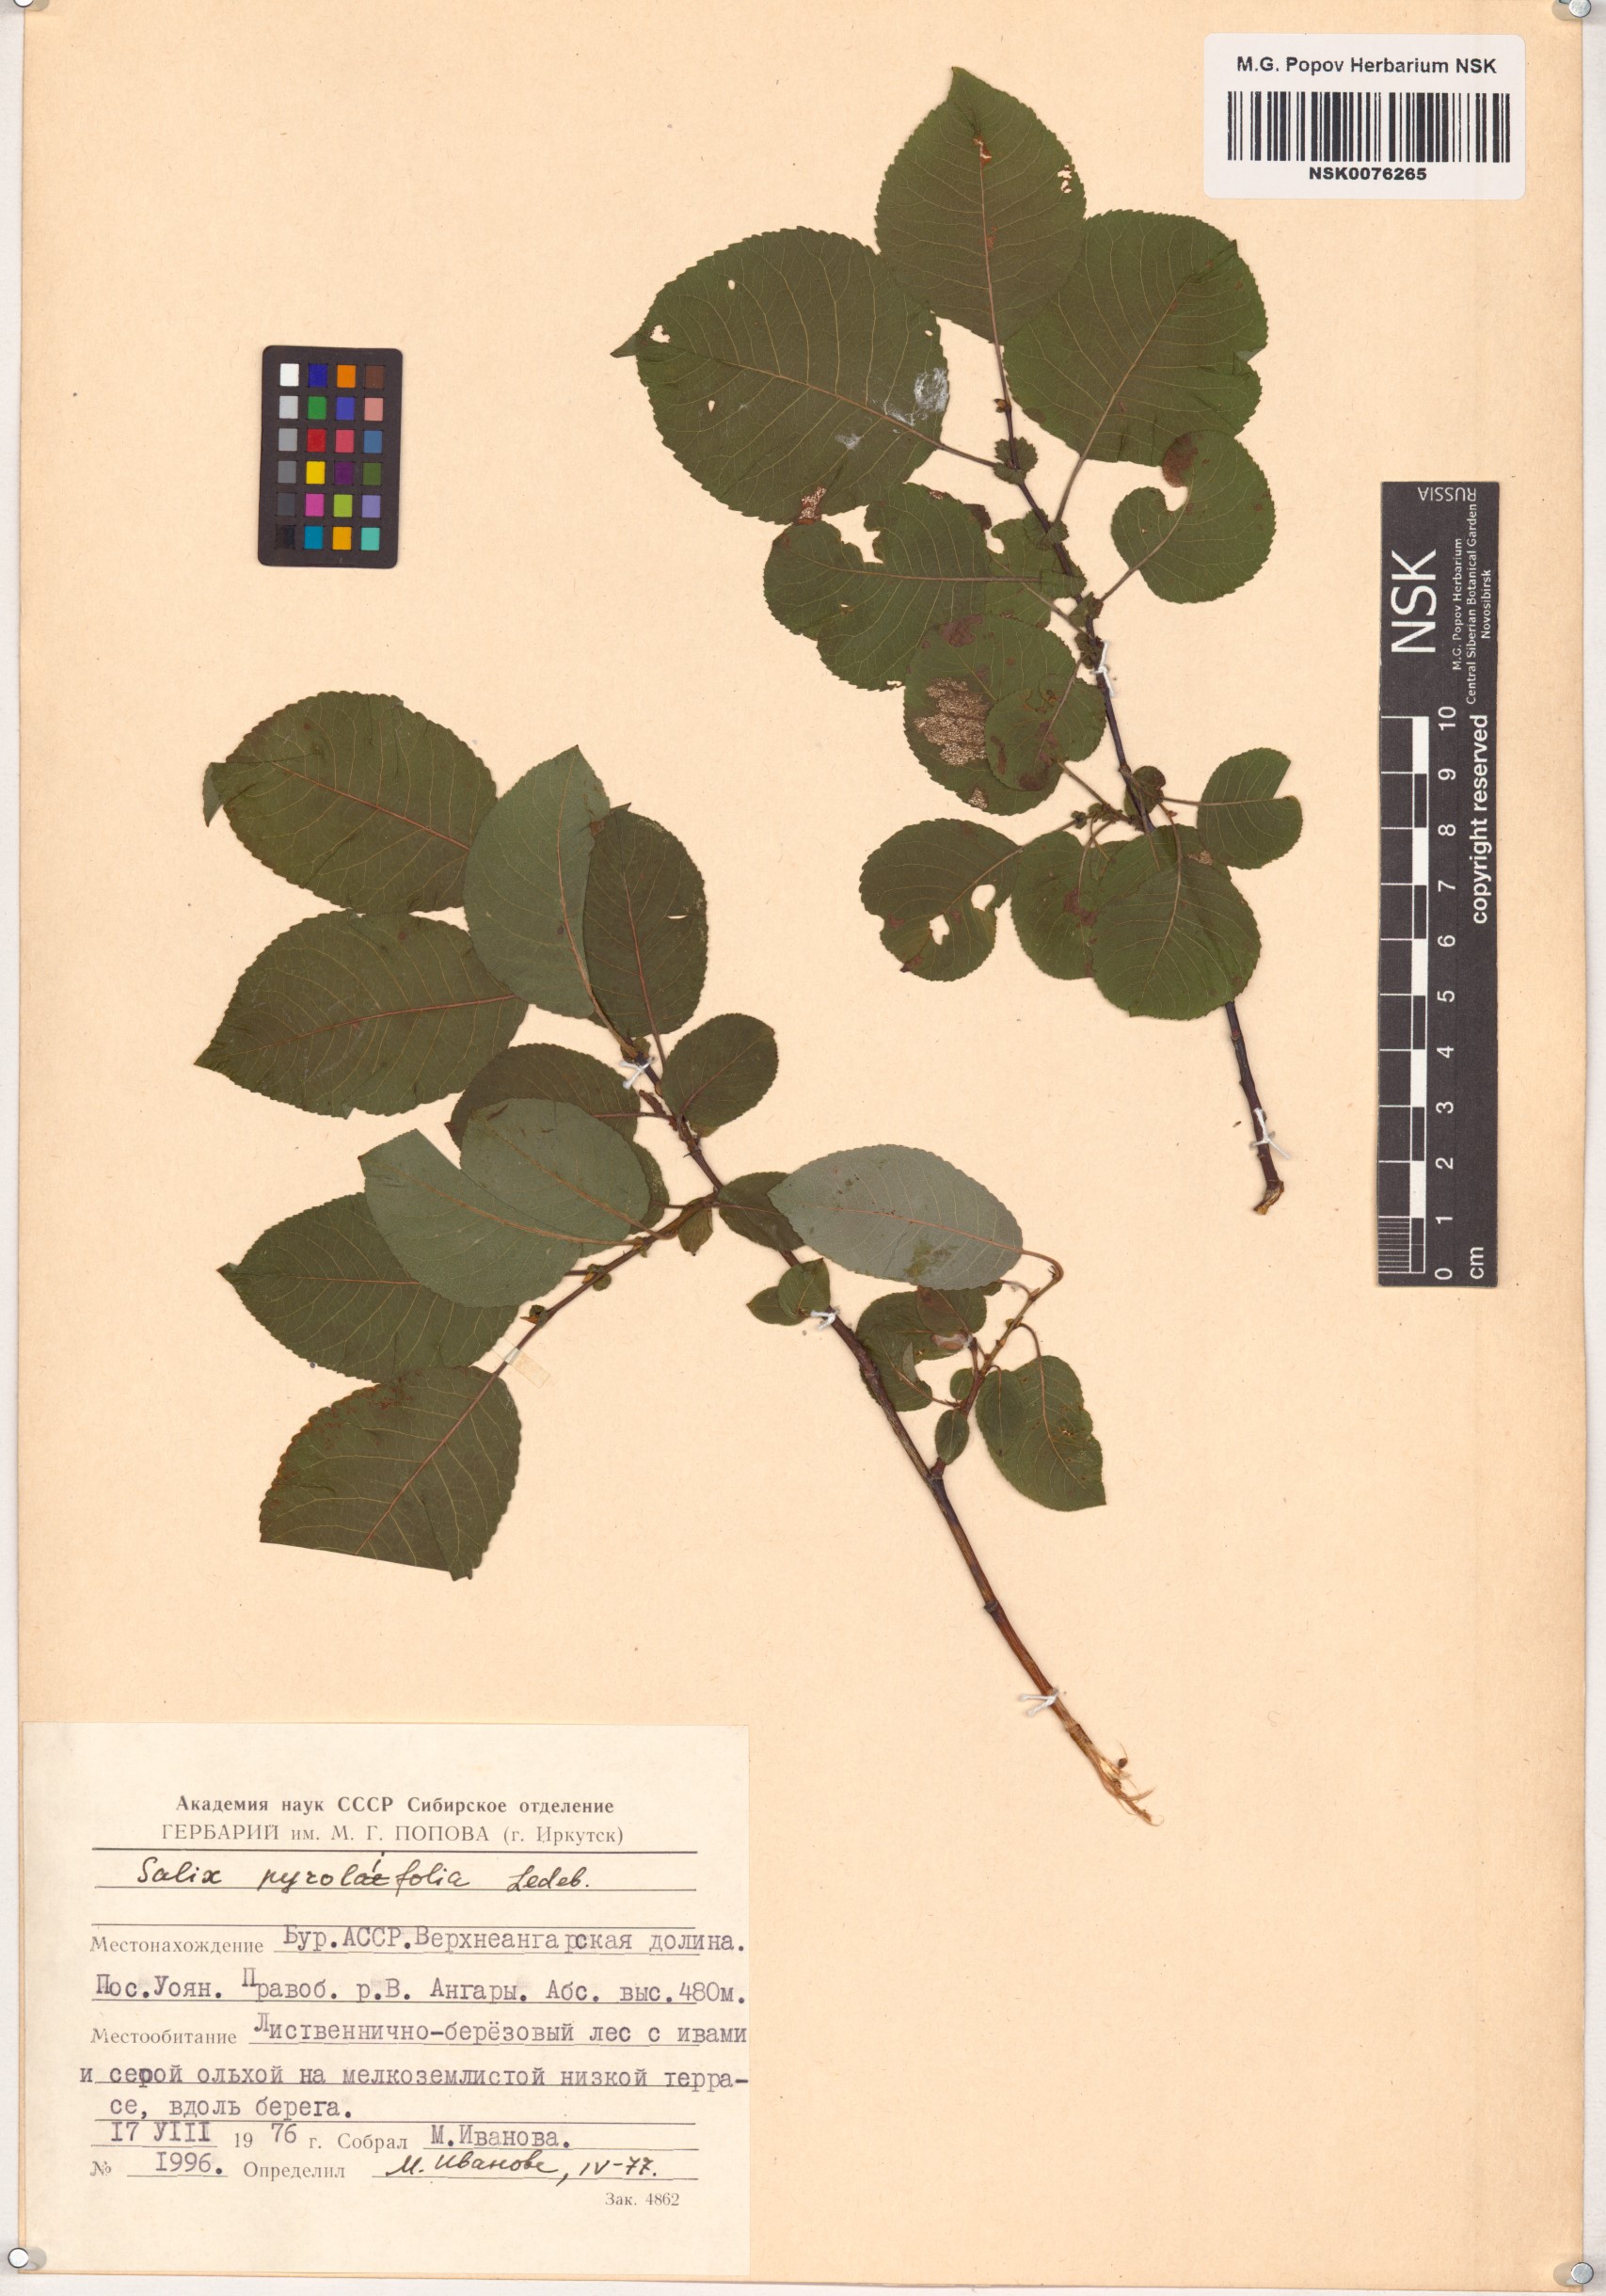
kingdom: Plantae
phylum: Tracheophyta
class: Magnoliopsida
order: Malpighiales
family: Salicaceae
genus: Salix
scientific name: Salix pyrolifolia
